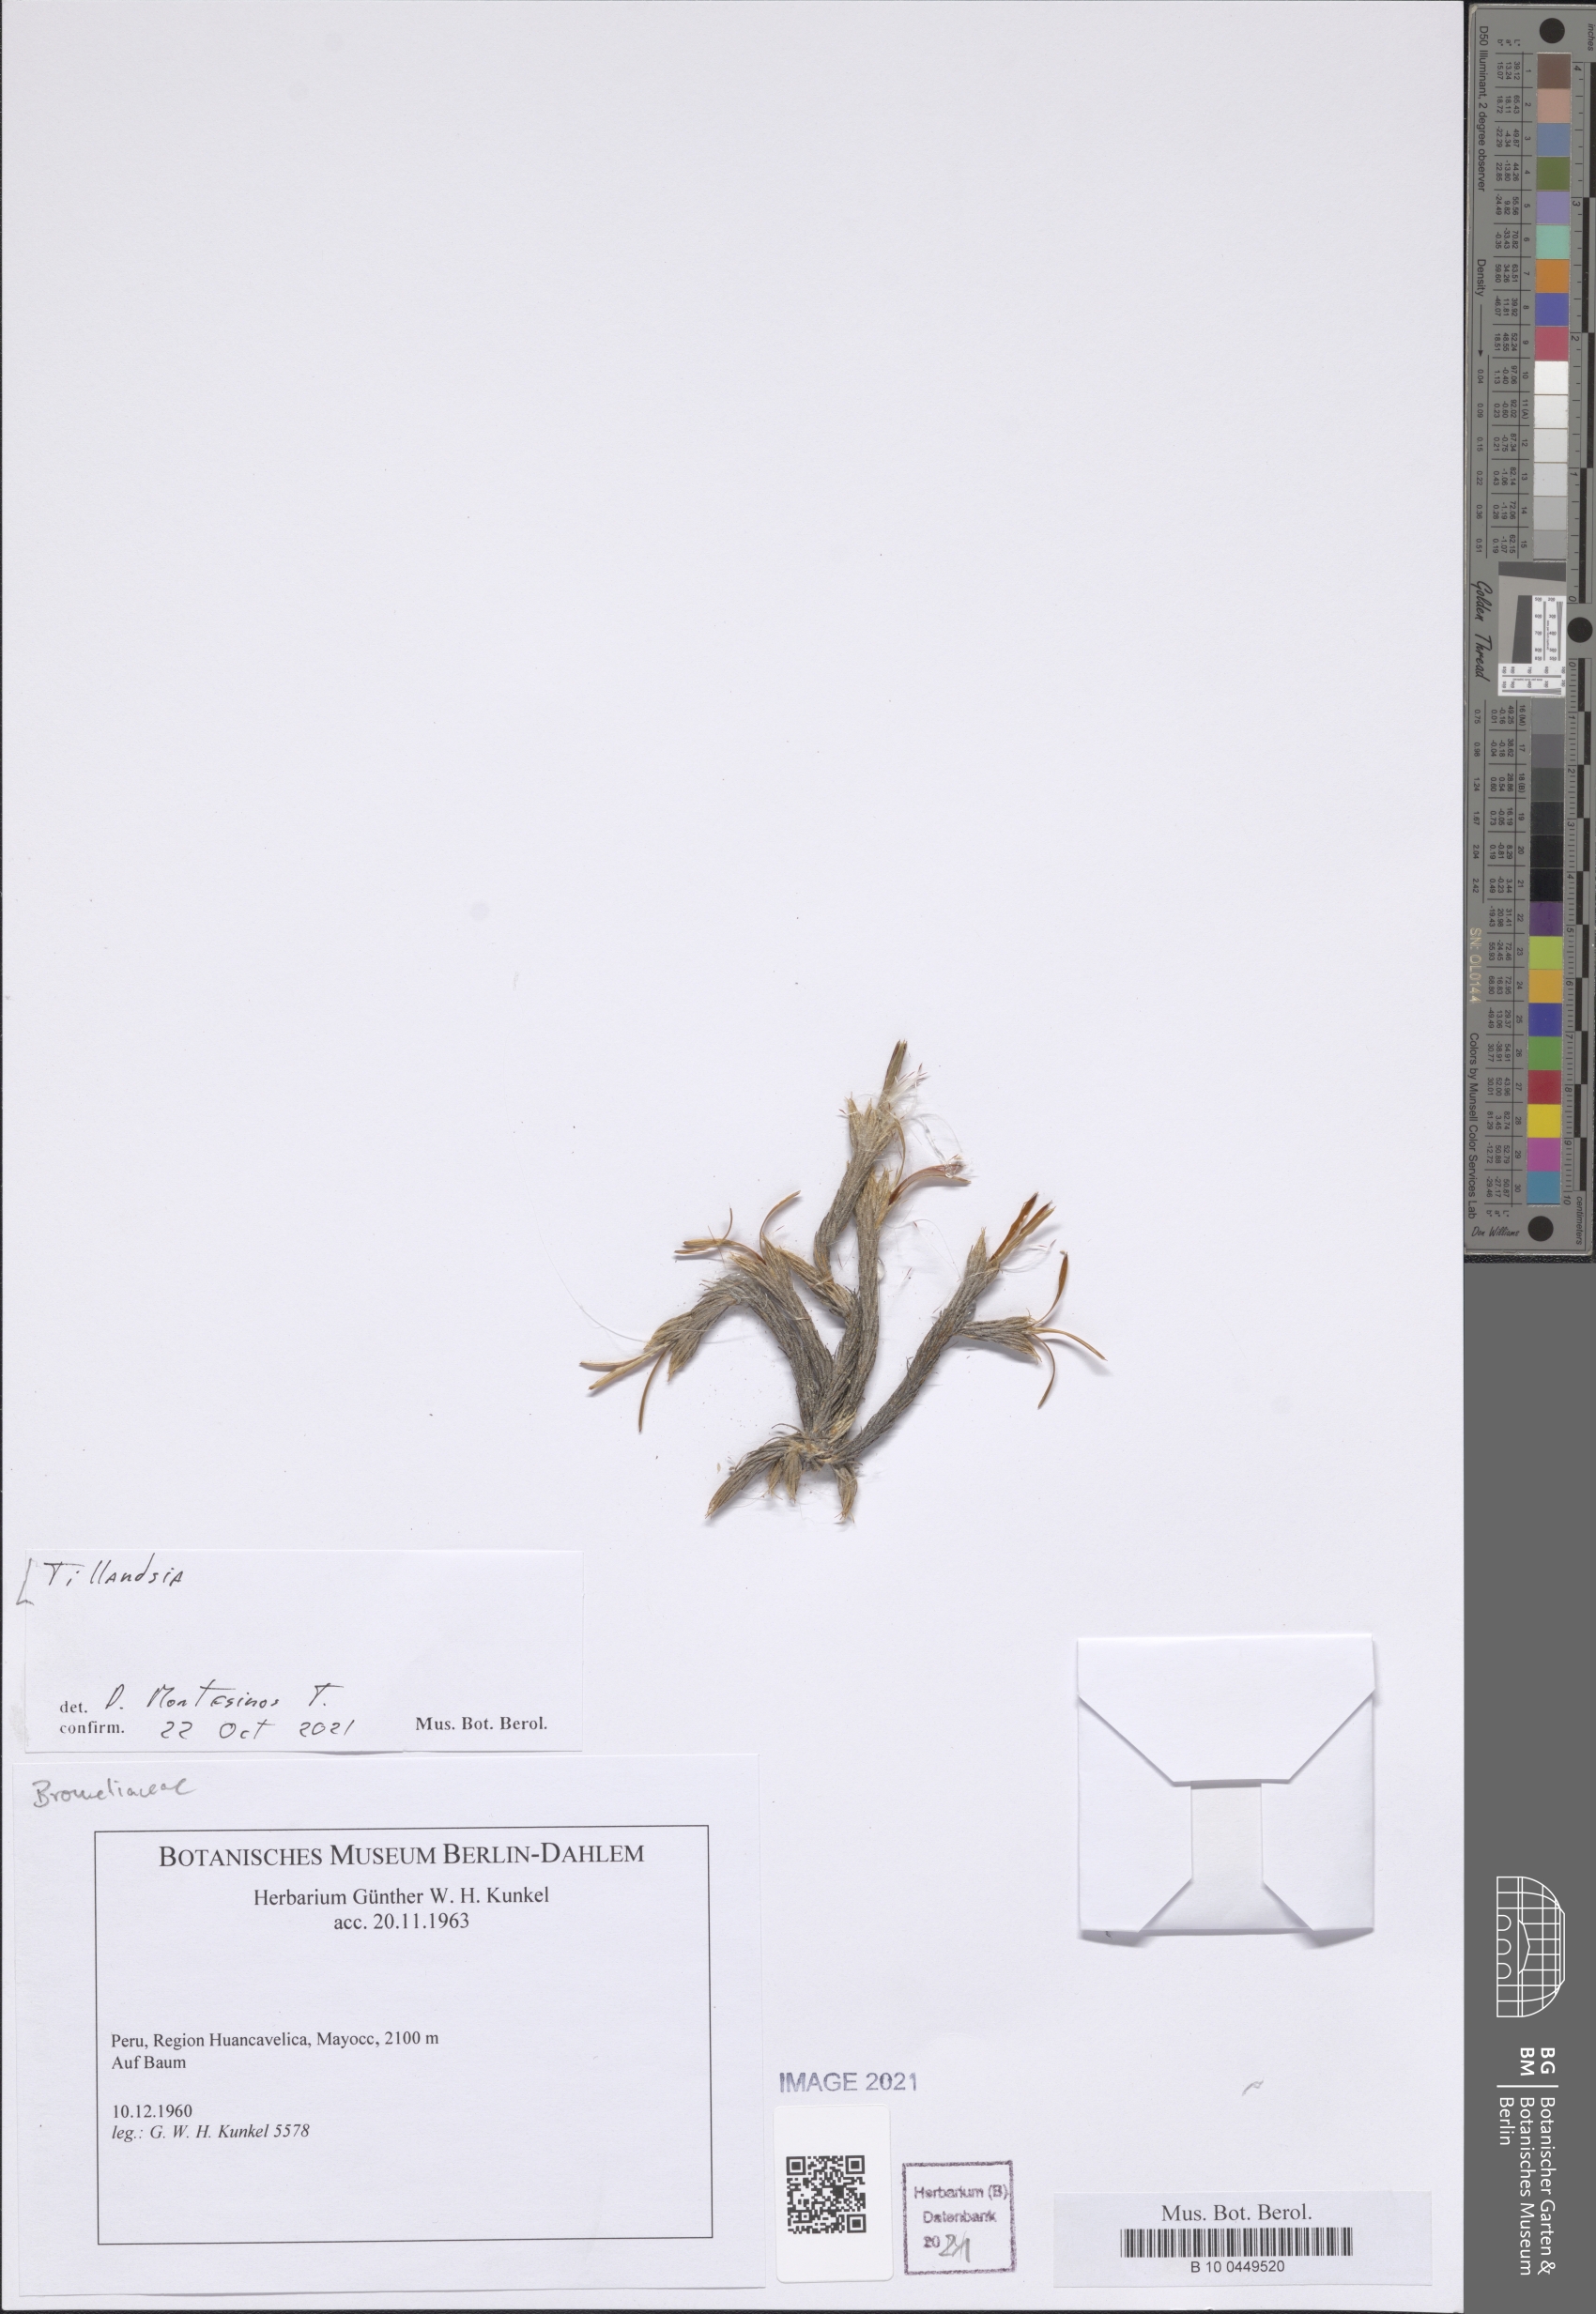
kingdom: Plantae
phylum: Tracheophyta
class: Liliopsida
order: Poales
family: Bromeliaceae
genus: Tillandsia
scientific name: Tillandsia
